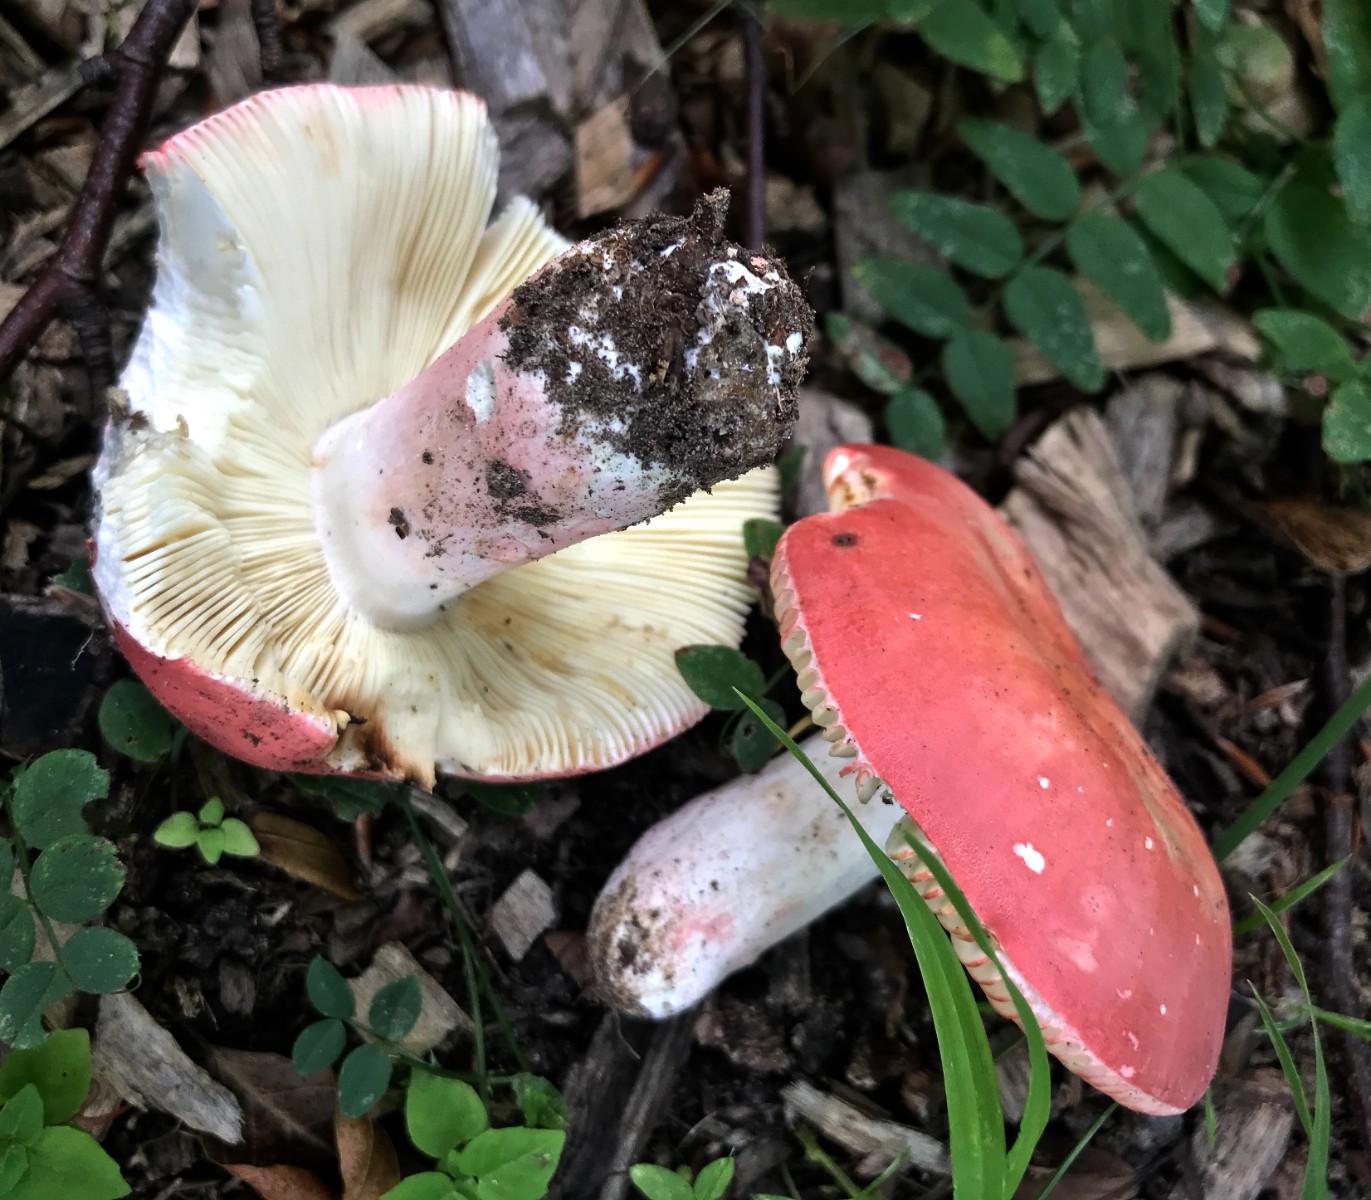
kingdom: Fungi
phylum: Basidiomycota
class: Agaricomycetes
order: Russulales
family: Russulaceae
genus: Russula
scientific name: Russula rosea
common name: fastkødet skørhat
